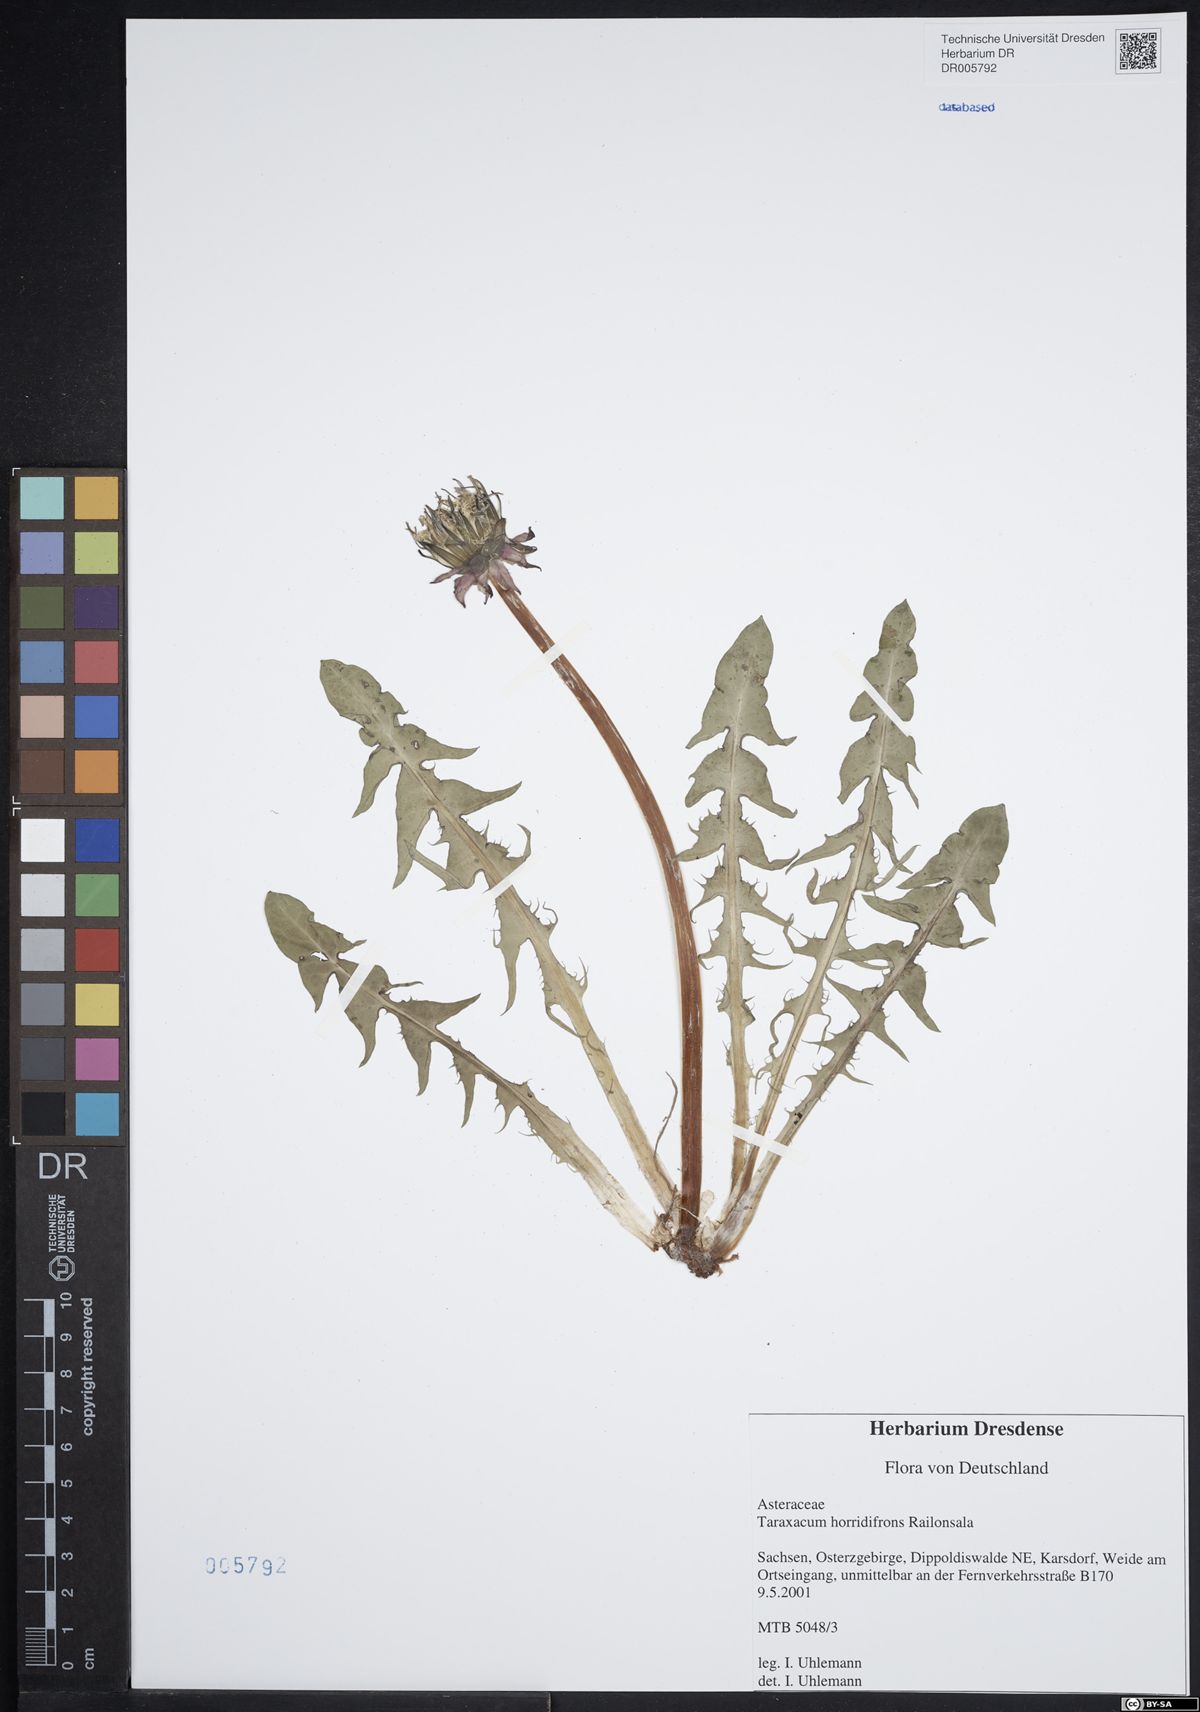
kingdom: Plantae
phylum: Tracheophyta
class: Magnoliopsida
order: Asterales
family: Asteraceae
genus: Taraxacum
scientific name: Taraxacum horridifrons
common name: Prickly-leaved dandelion
